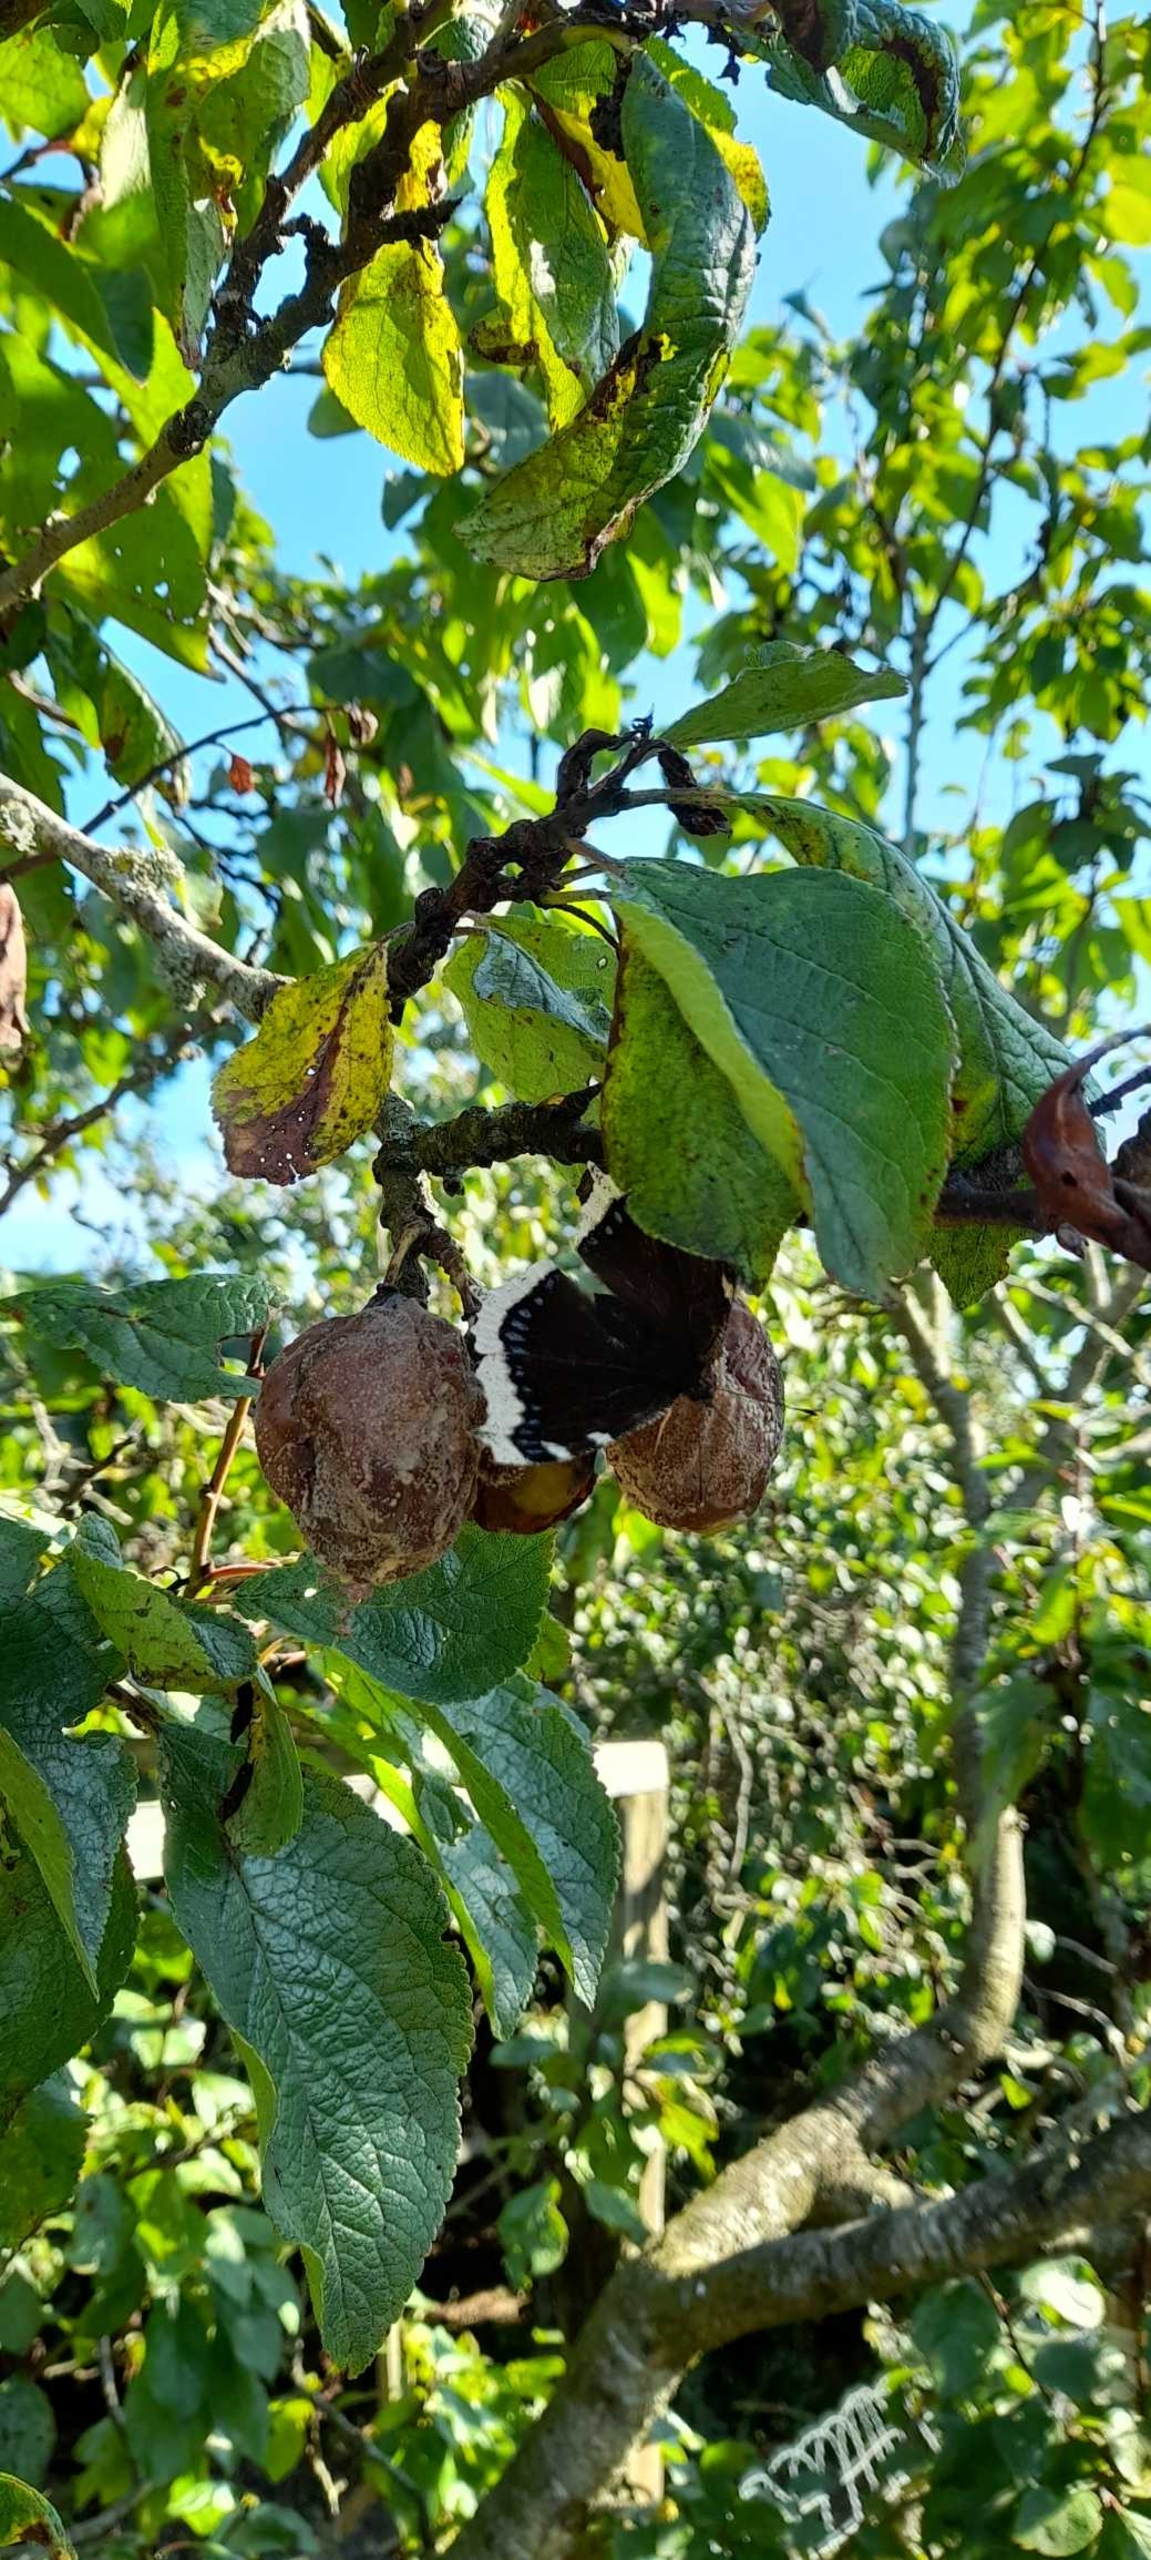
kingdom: Animalia
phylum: Arthropoda
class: Insecta
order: Lepidoptera
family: Nymphalidae
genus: Nymphalis
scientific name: Nymphalis antiopa
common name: Sørgekåbe
